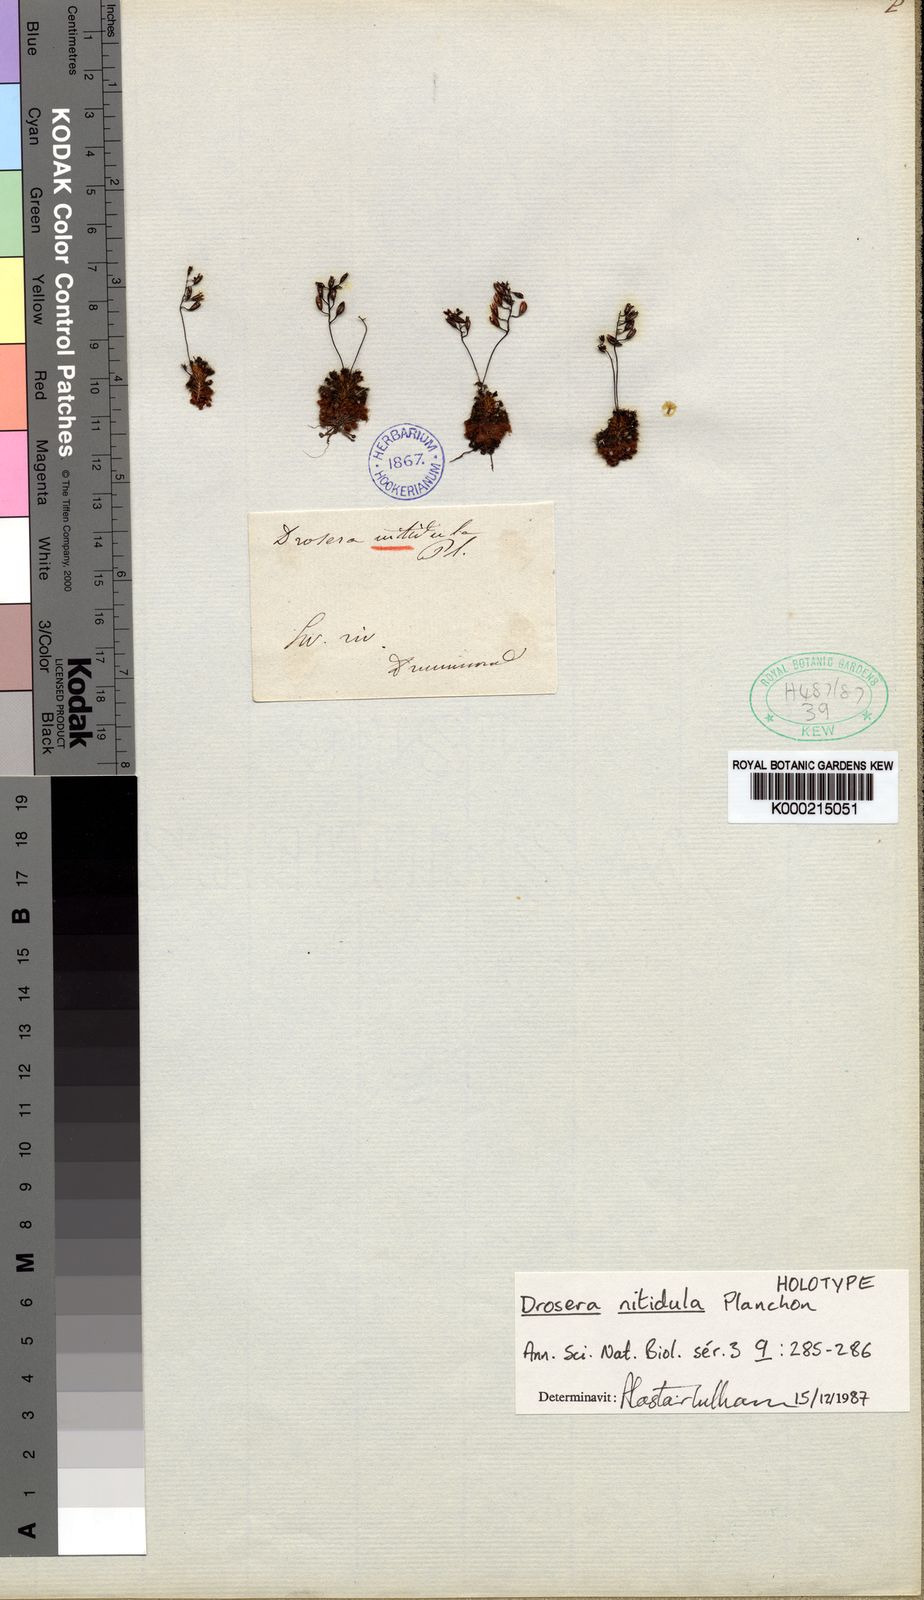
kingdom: Plantae
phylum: Tracheophyta
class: Magnoliopsida
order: Caryophyllales
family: Droseraceae
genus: Drosera
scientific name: Drosera nitidula
